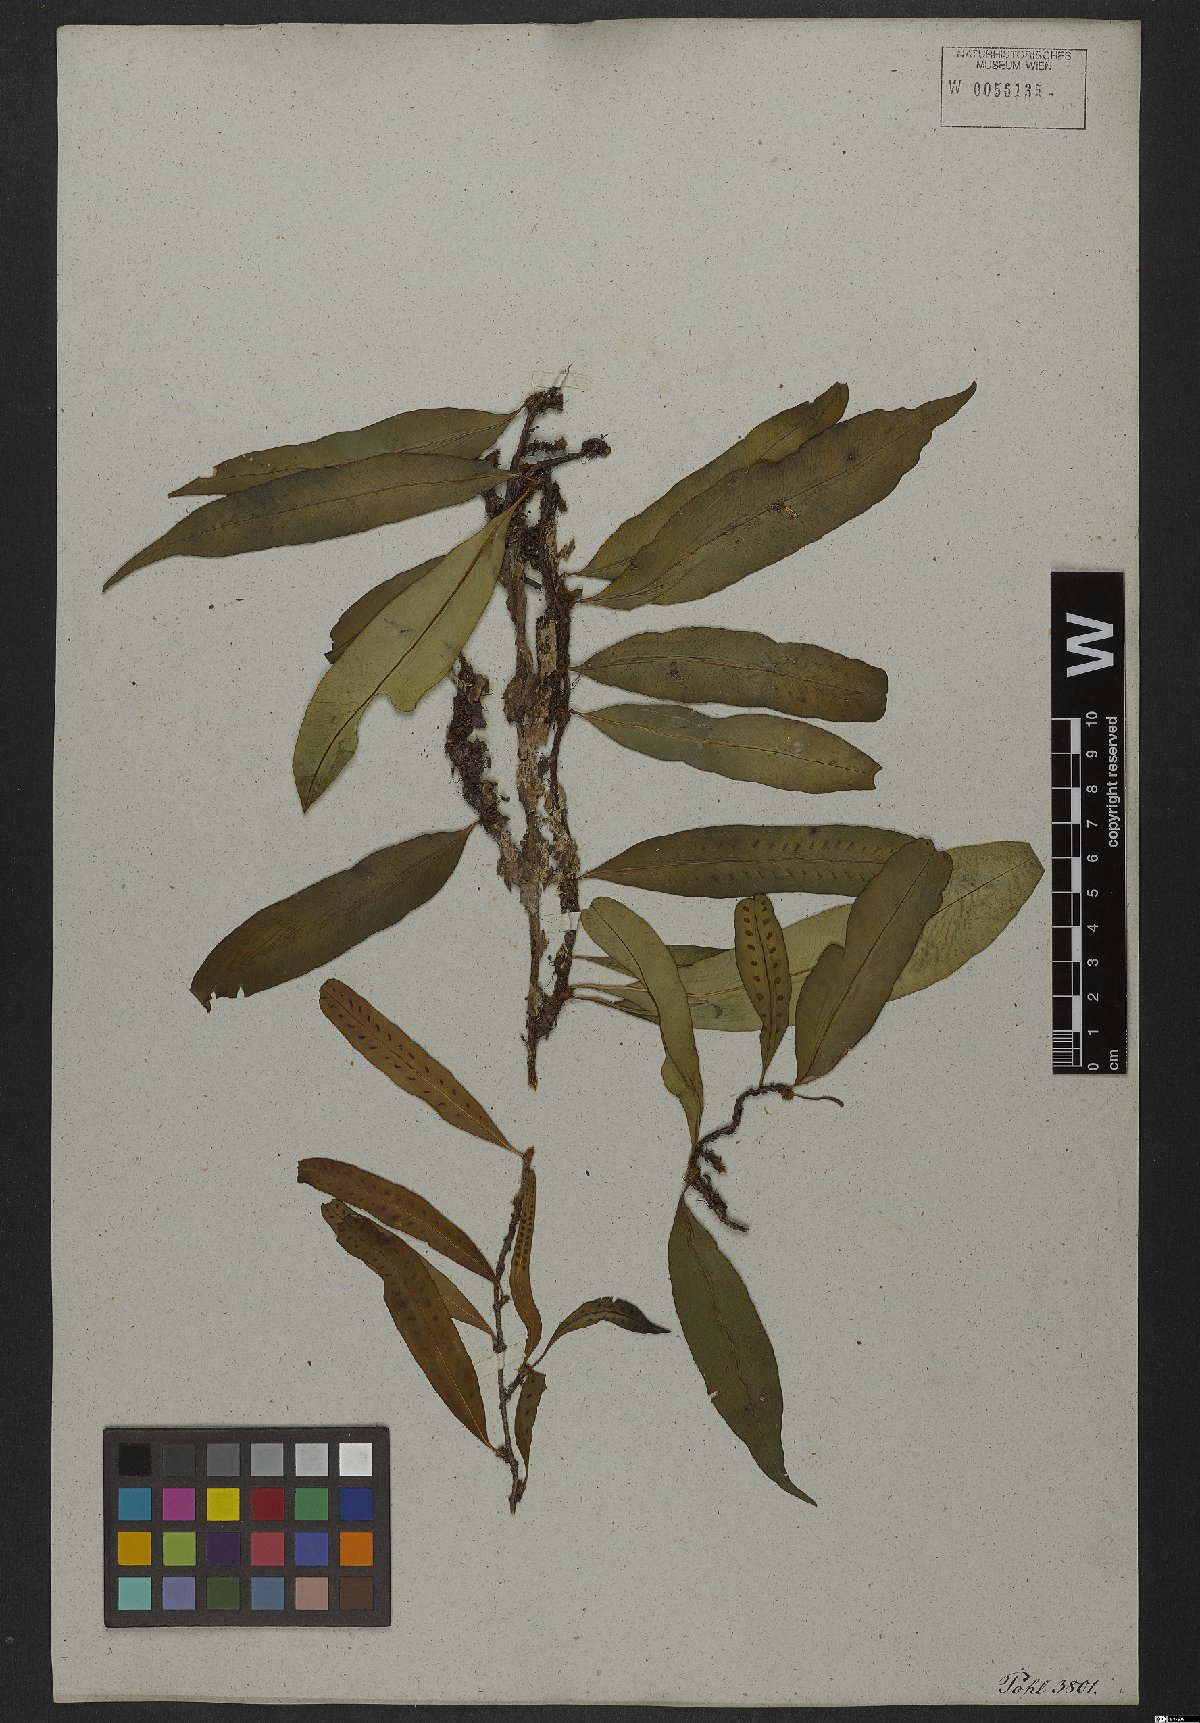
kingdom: Plantae
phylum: Tracheophyta
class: Polypodiopsida
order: Polypodiales
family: Polypodiaceae
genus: Microgramma
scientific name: Microgramma persicariifolia
